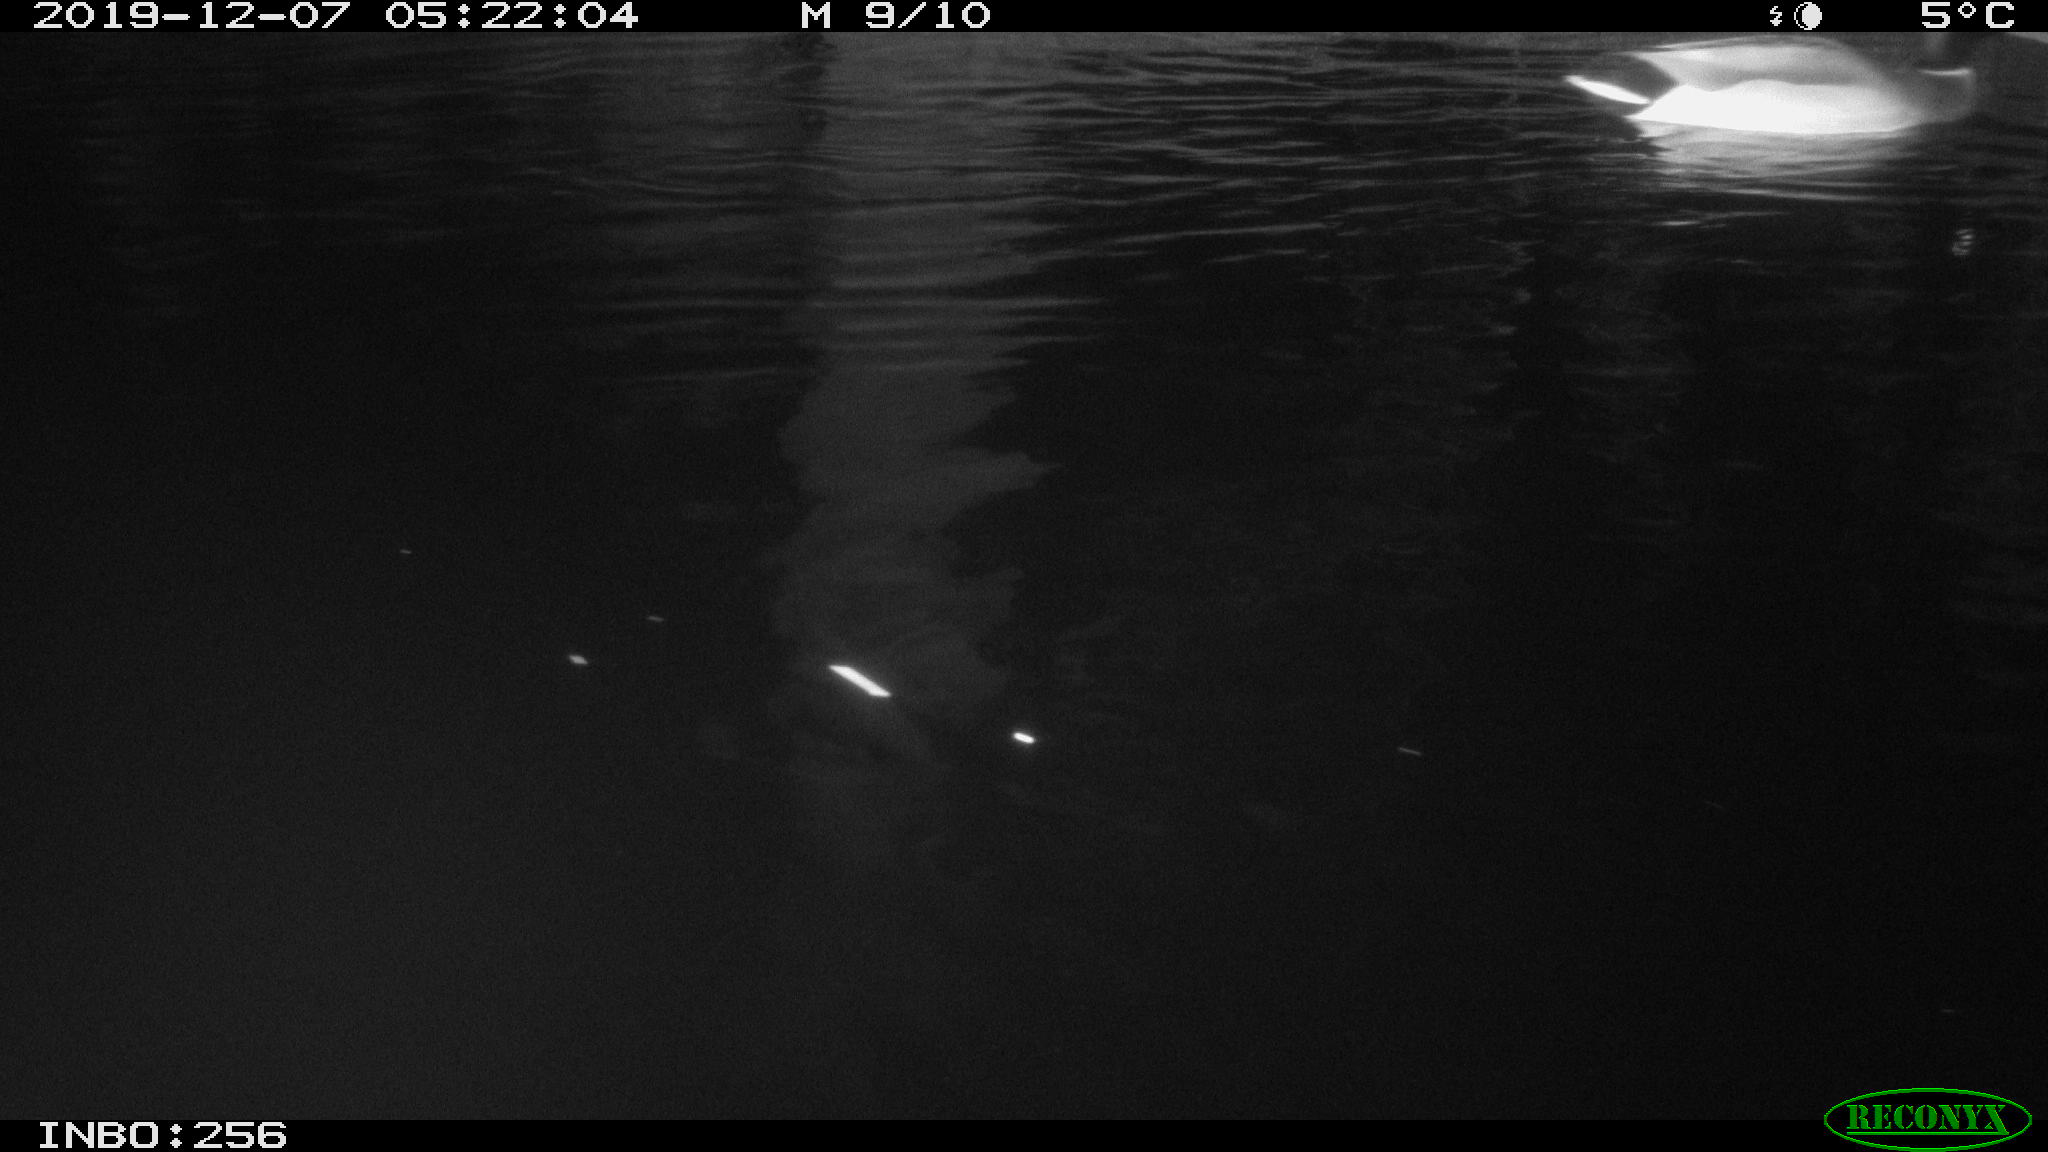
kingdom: Animalia
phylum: Chordata
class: Aves
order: Anseriformes
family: Anatidae
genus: Anas
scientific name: Anas platyrhynchos
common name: Mallard
